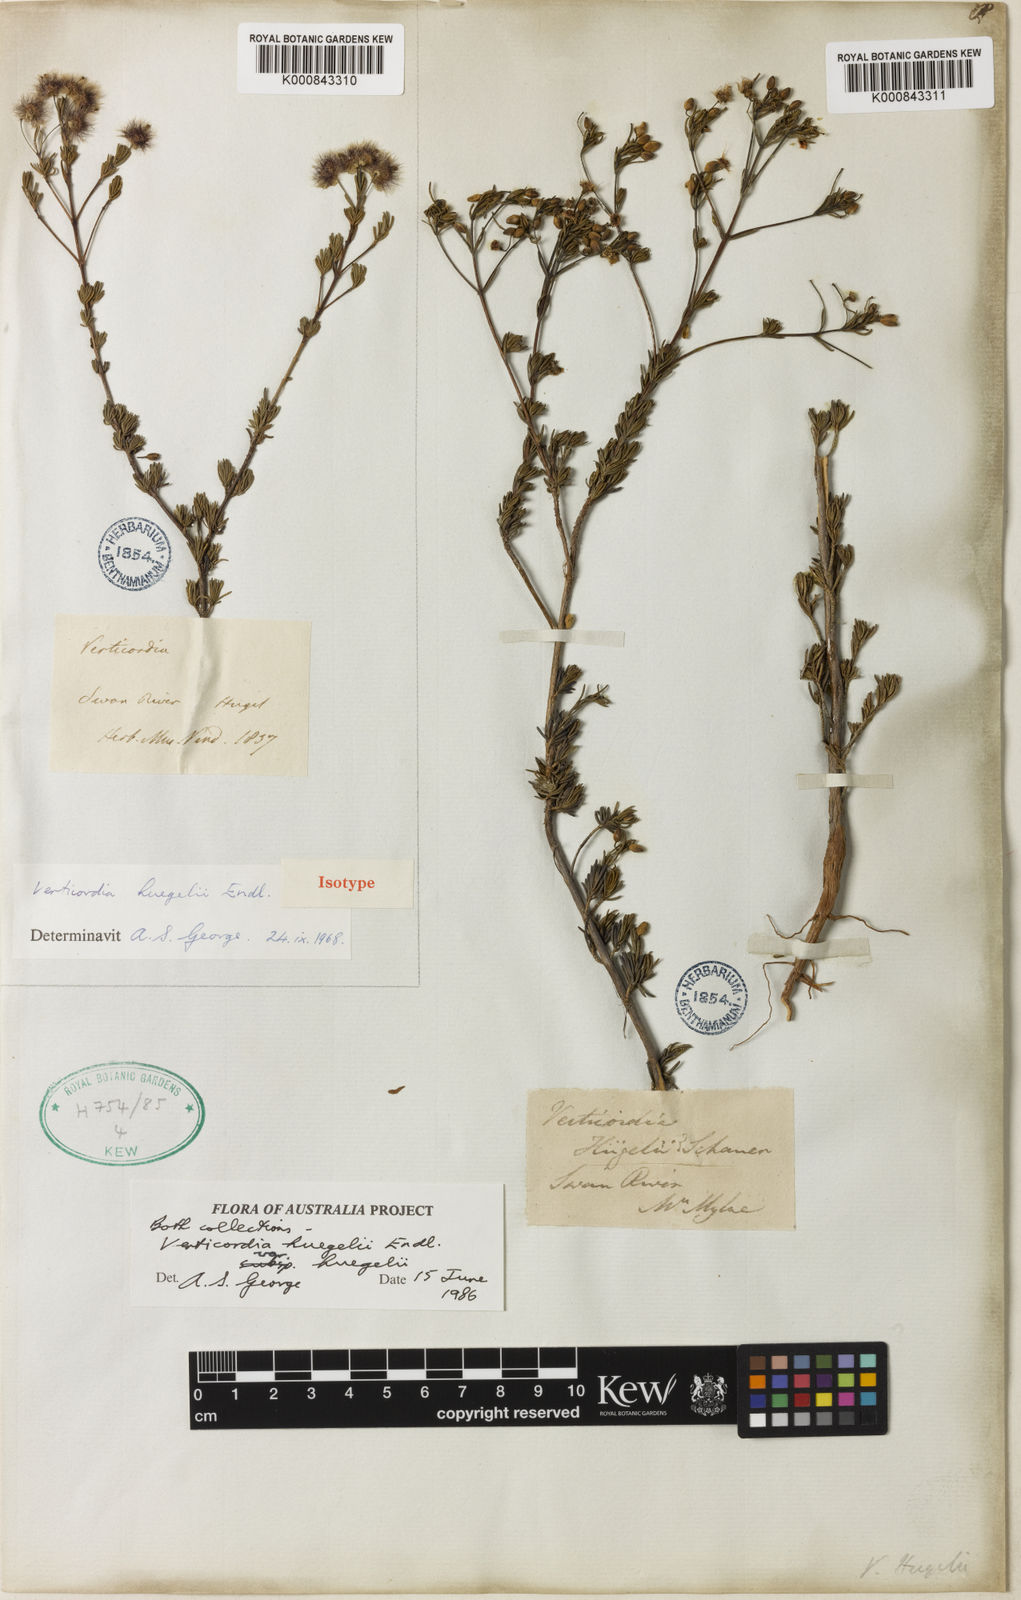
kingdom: Plantae
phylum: Tracheophyta
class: Magnoliopsida
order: Myrtales
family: Myrtaceae
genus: Verticordia
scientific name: Verticordia huegelii
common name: Variegate feather-flower
